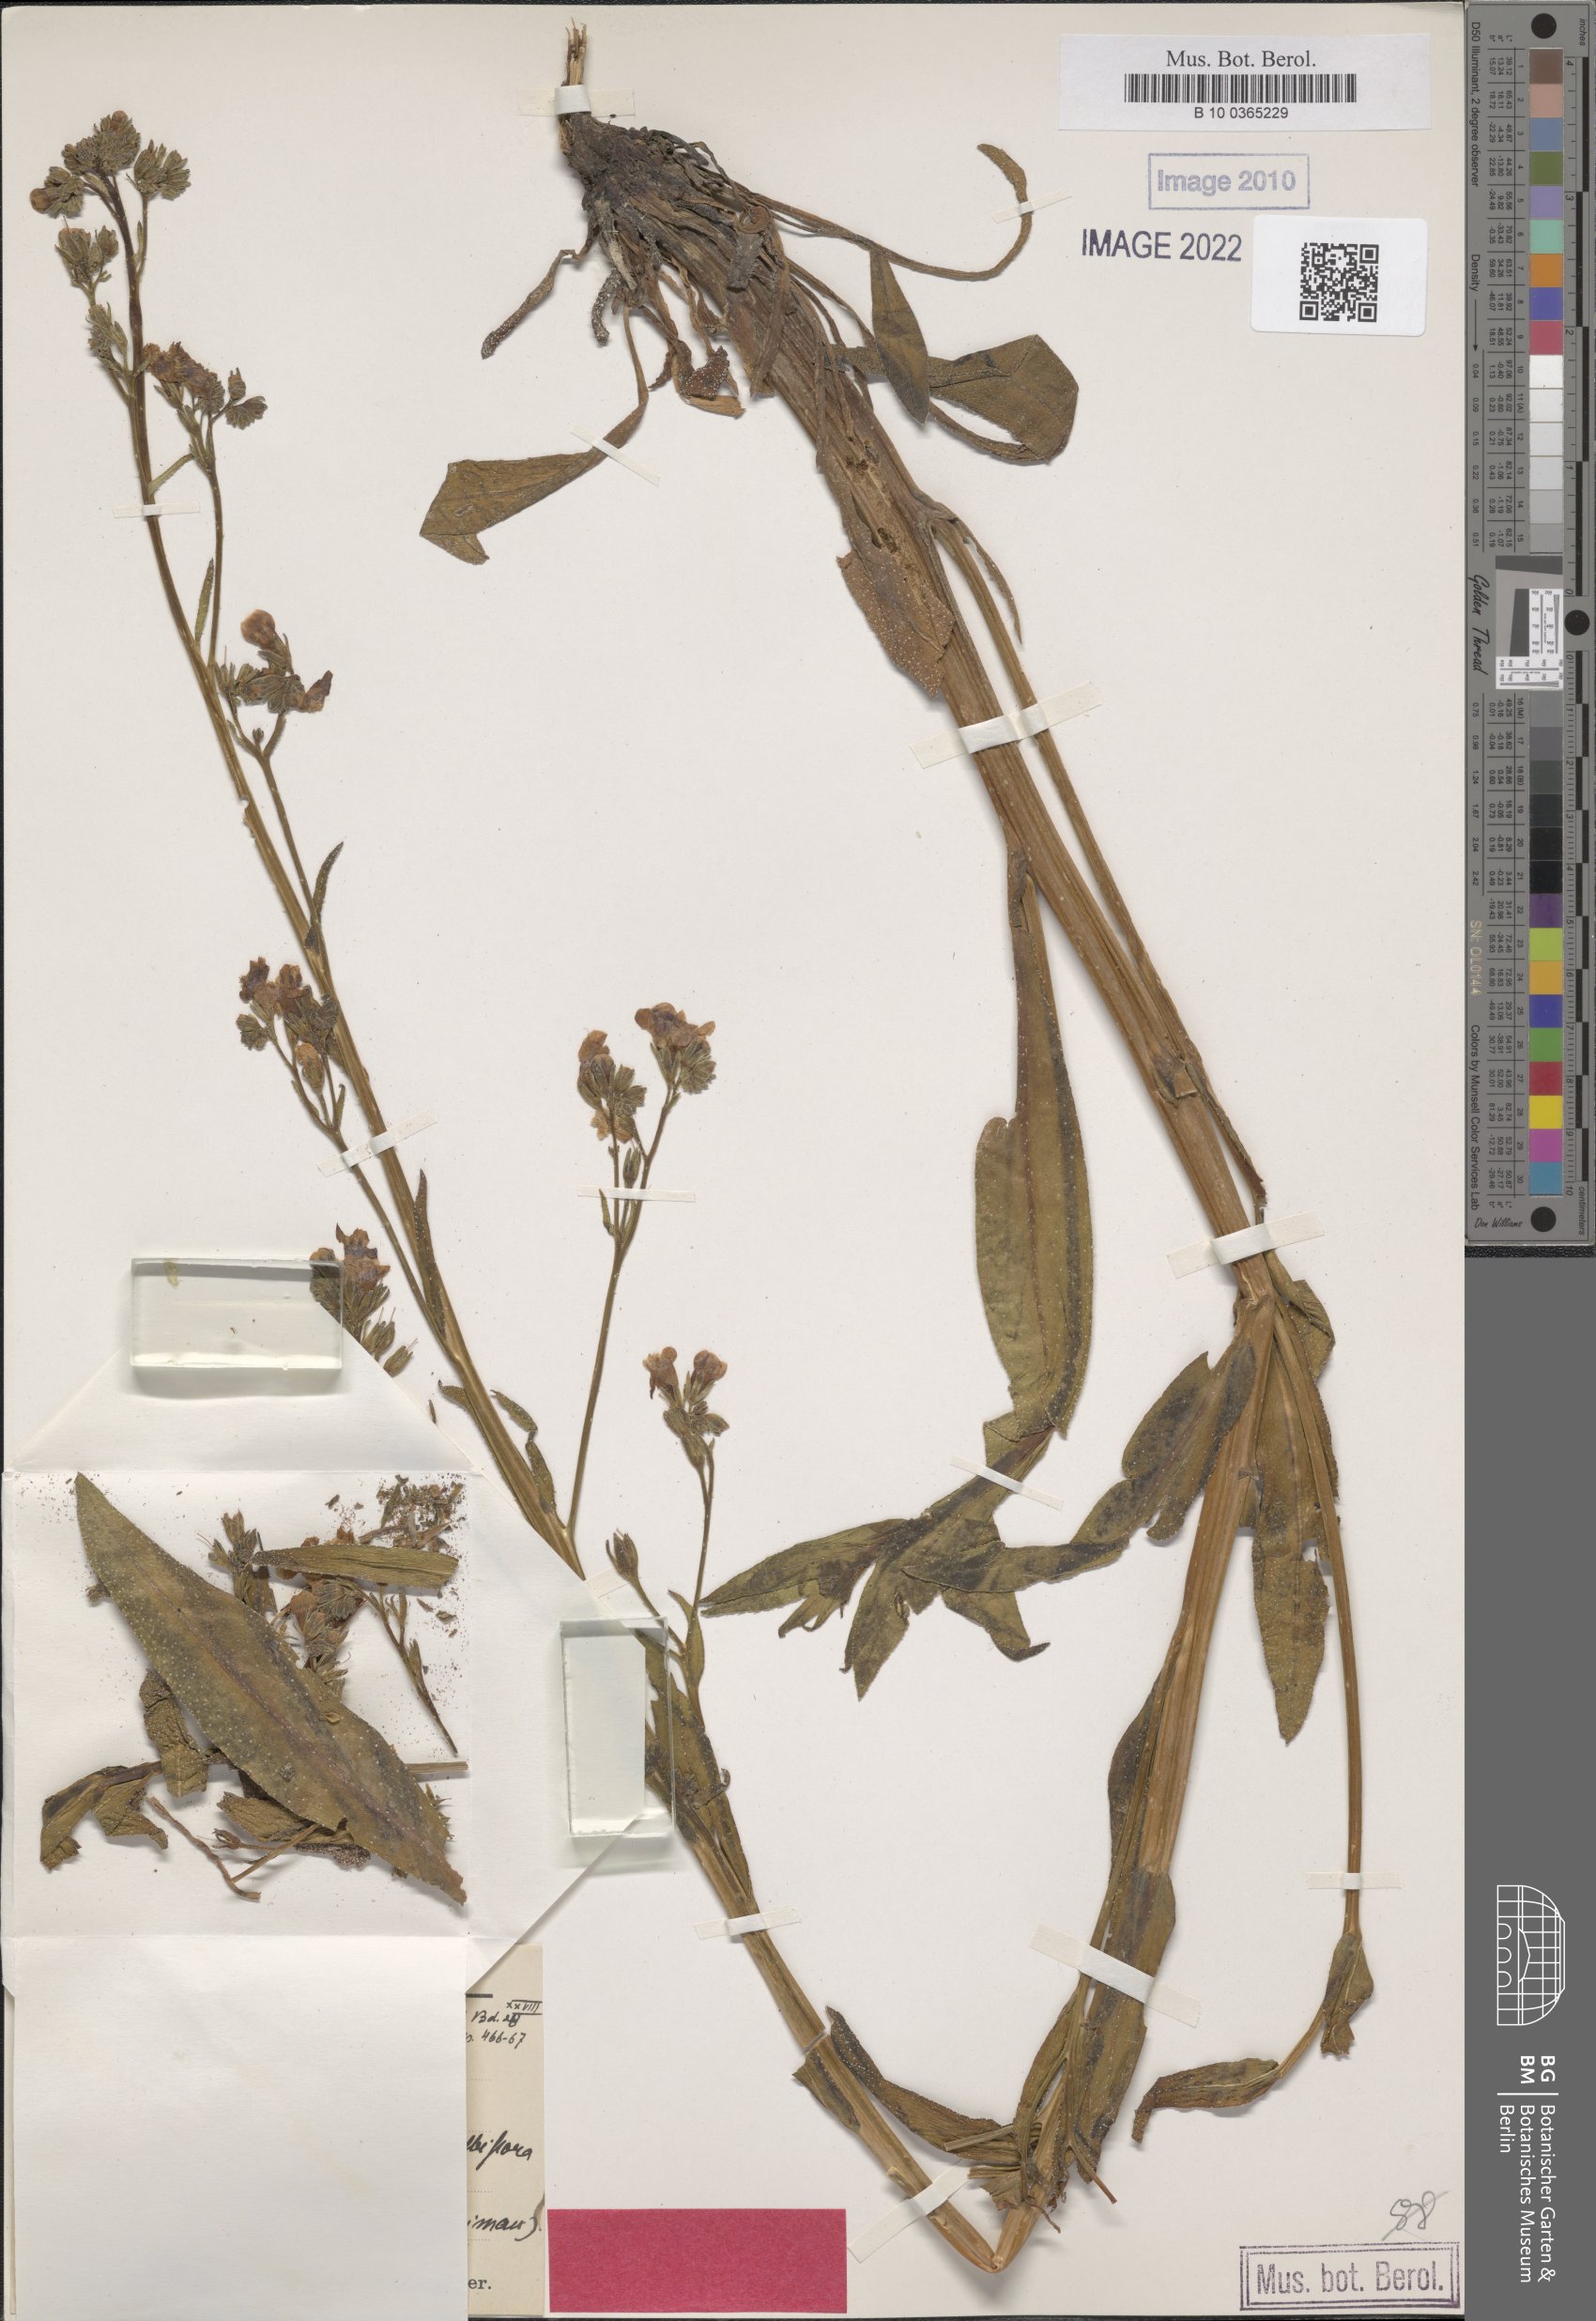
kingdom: Plantae
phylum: Tracheophyta
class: Magnoliopsida
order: Boraginales
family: Boraginaceae
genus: Anchusa
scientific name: Anchusa strigosa
